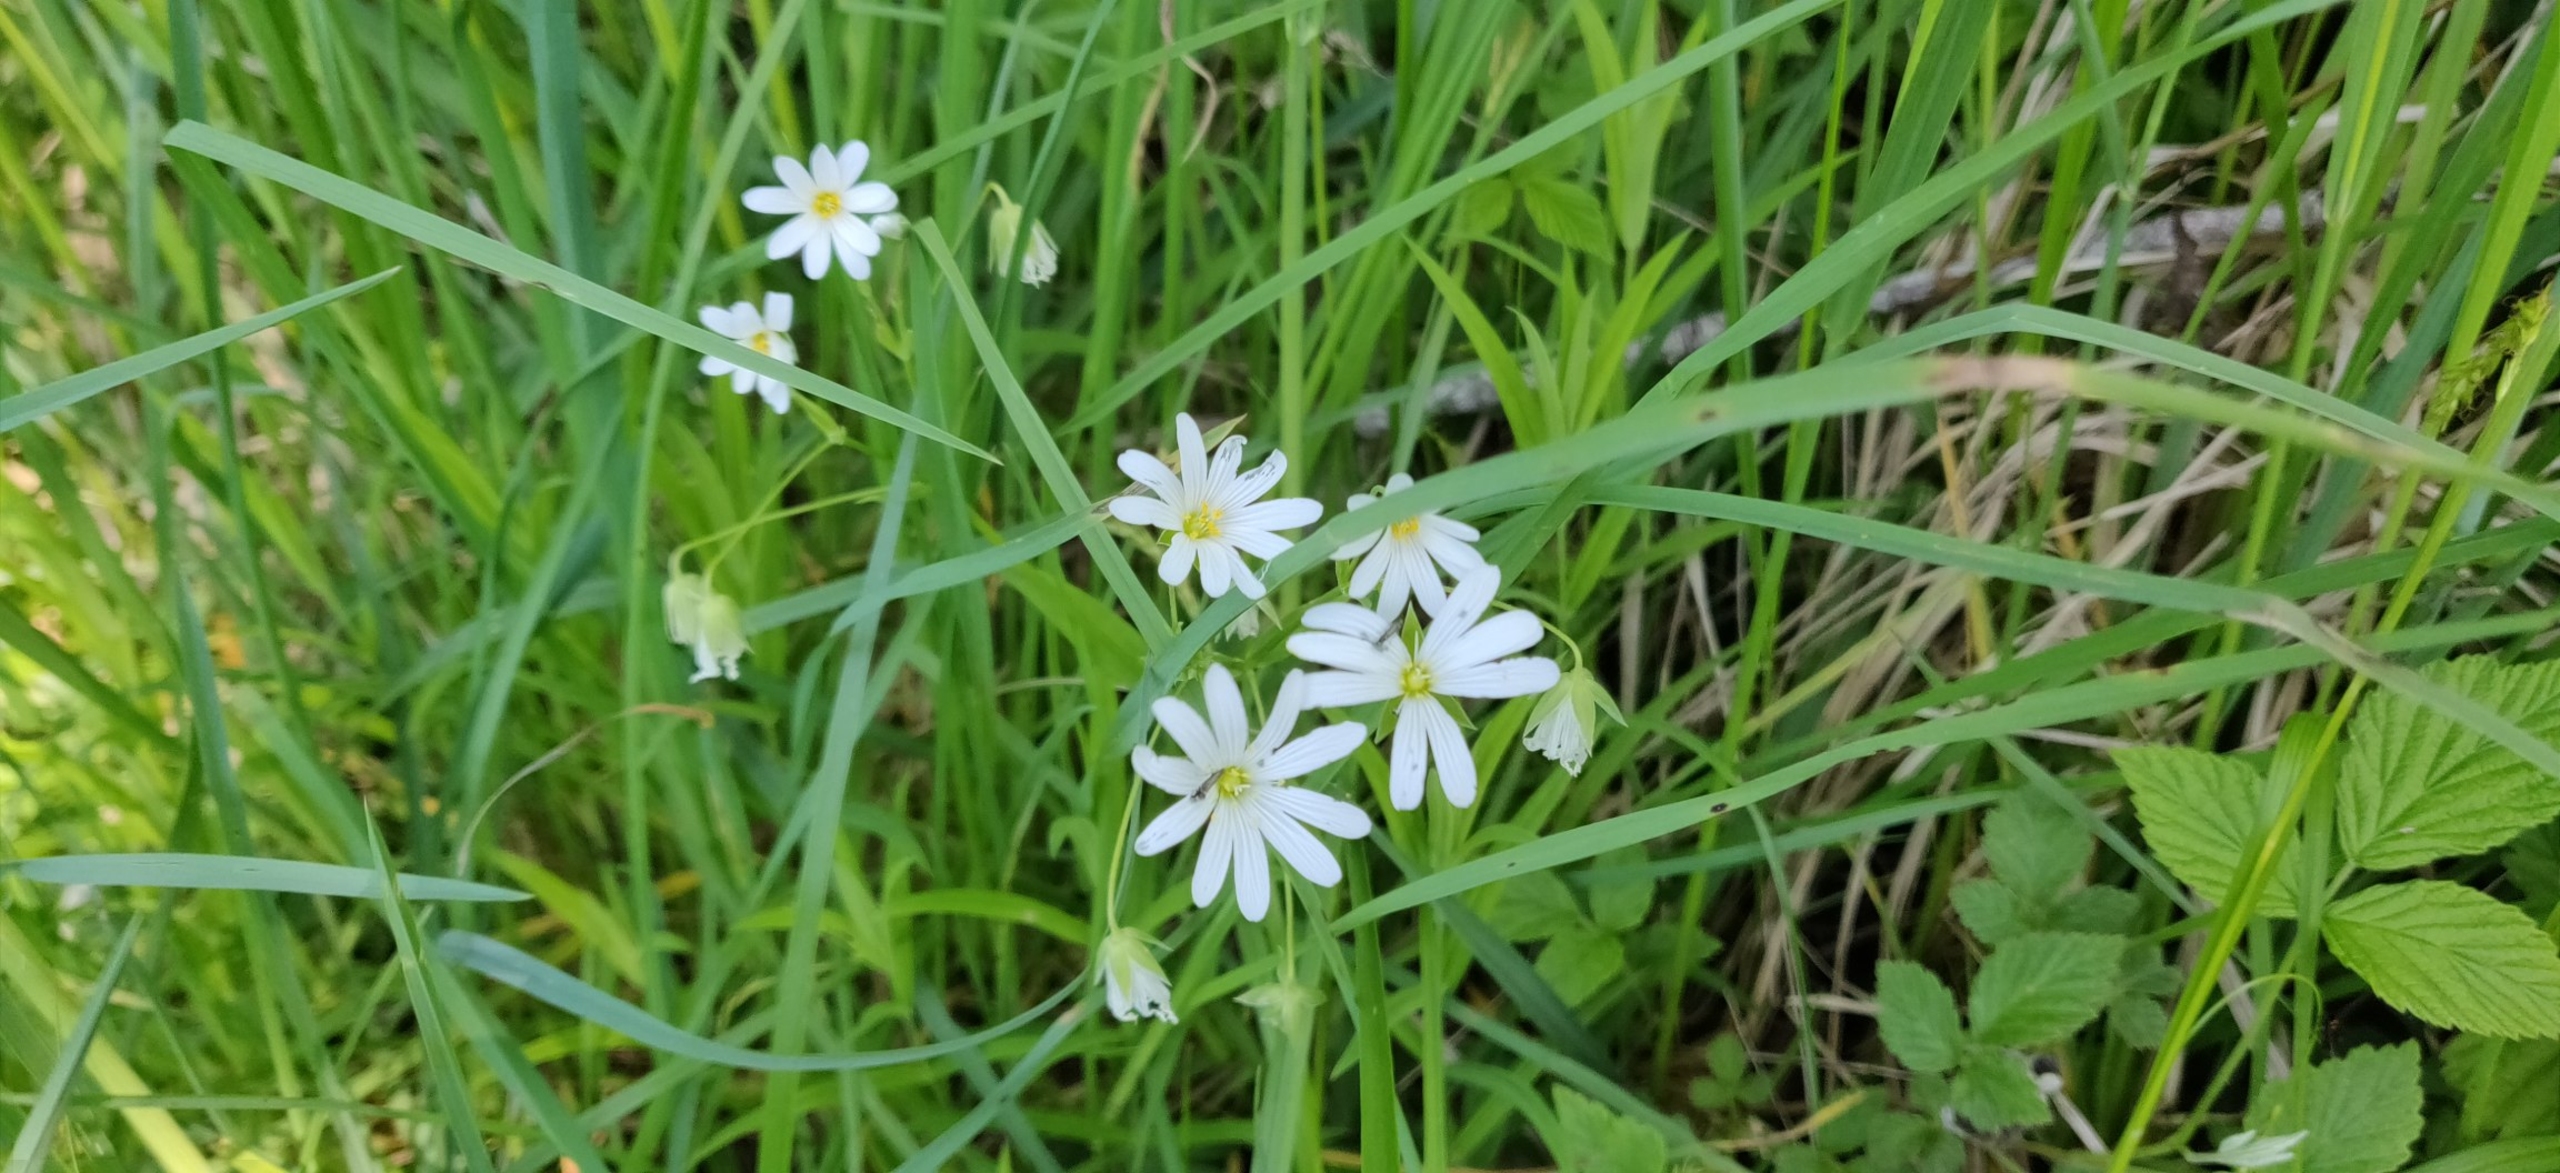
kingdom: Plantae
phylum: Tracheophyta
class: Magnoliopsida
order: Caryophyllales
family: Caryophyllaceae
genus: Rabelera
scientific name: Rabelera holostea
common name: Stor fladstjerne
